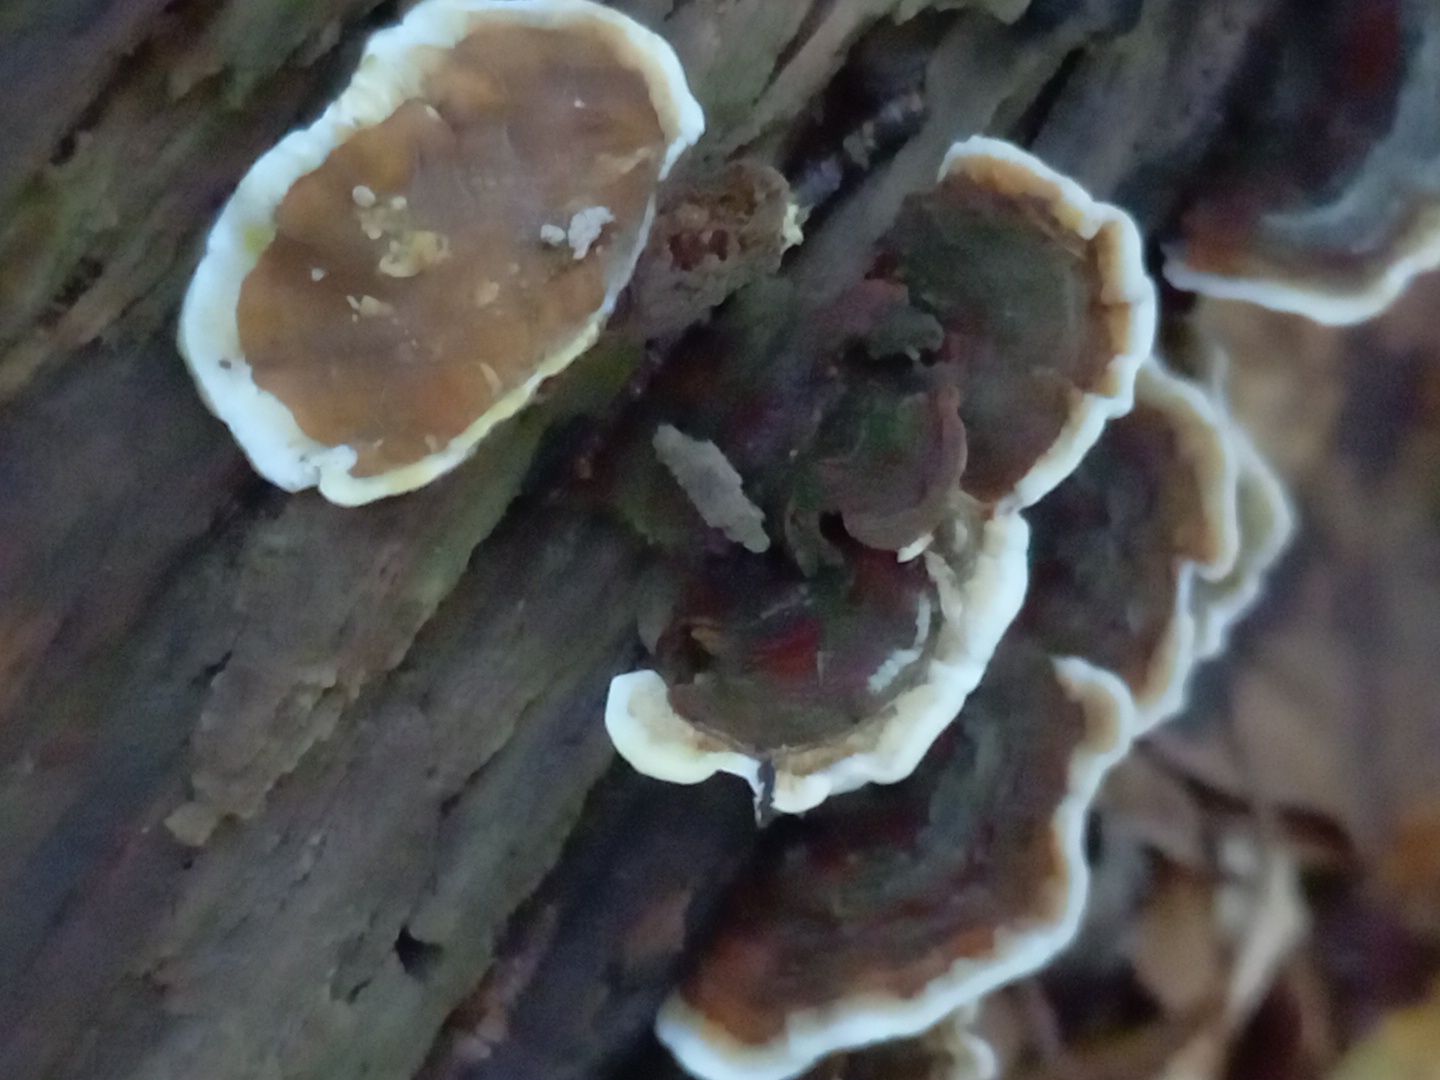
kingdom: Fungi
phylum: Basidiomycota
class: Agaricomycetes
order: Russulales
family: Stereaceae
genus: Stereum
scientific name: Stereum subtomentosum
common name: smuk lædersvamp
